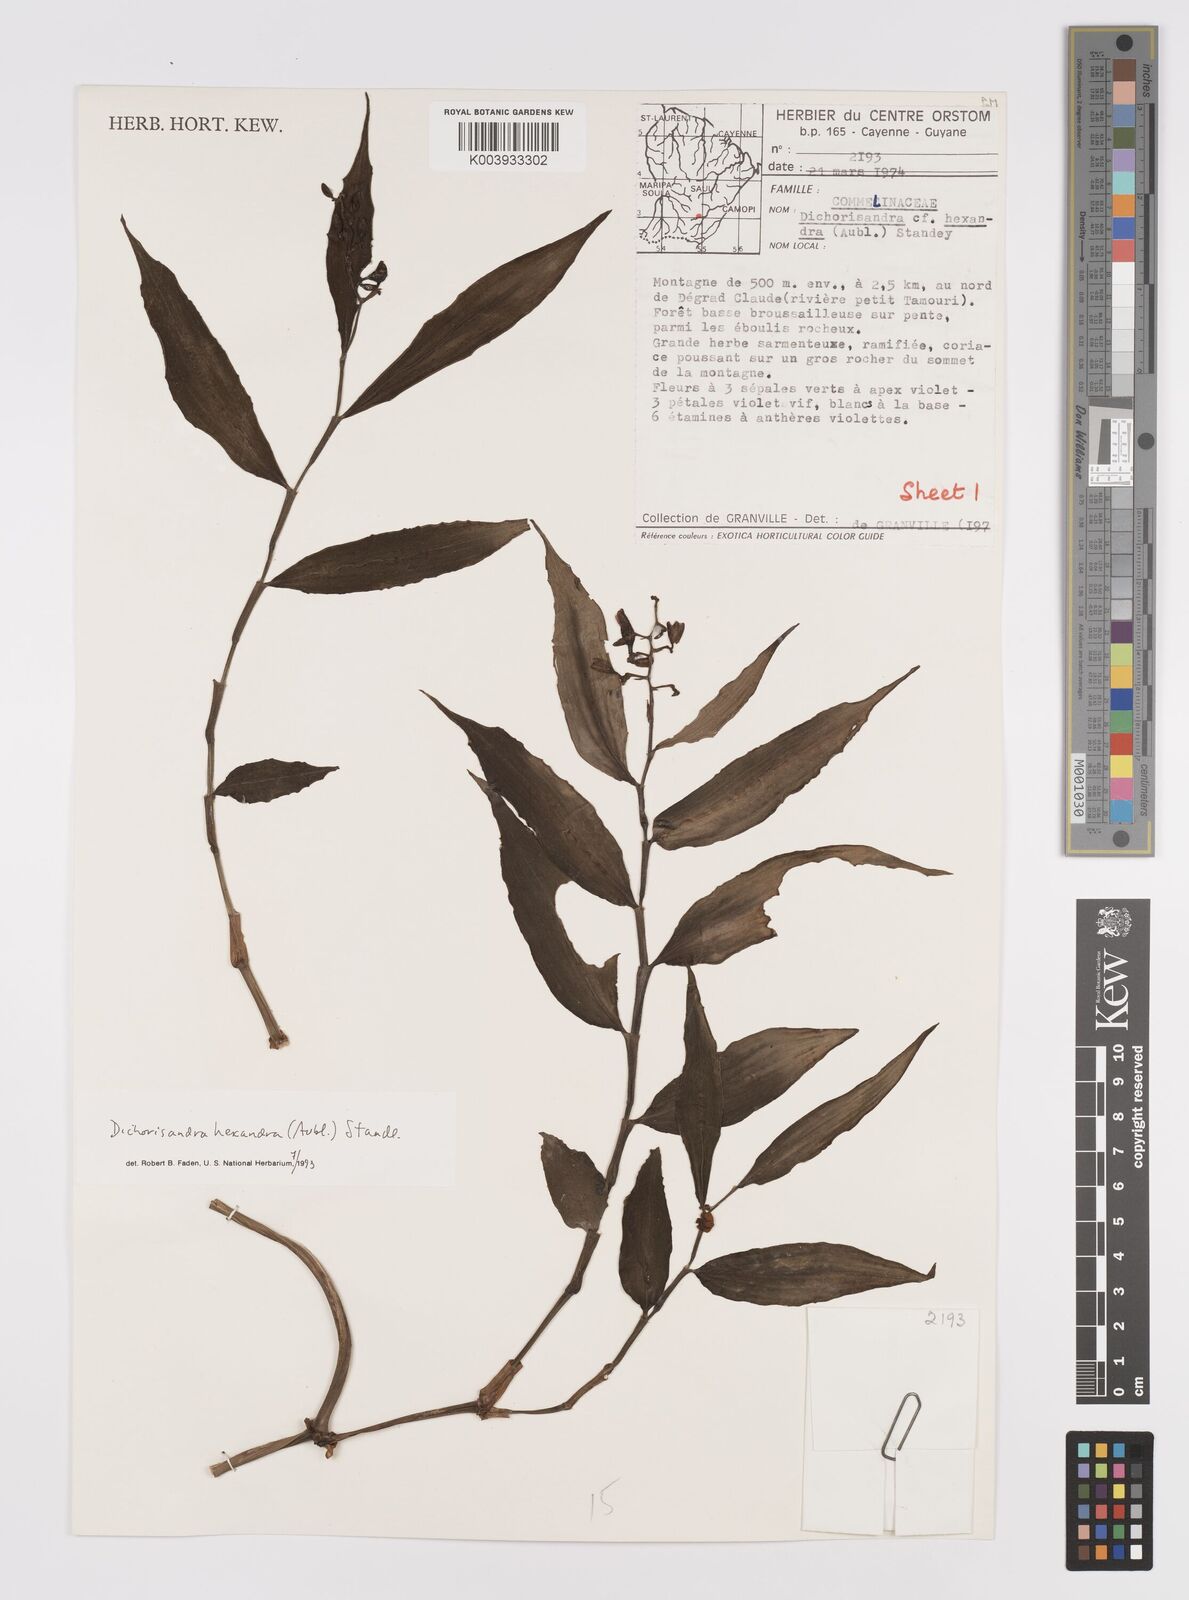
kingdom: Plantae
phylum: Tracheophyta
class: Liliopsida
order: Commelinales
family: Commelinaceae
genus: Dichorisandra
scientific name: Dichorisandra hexandra
